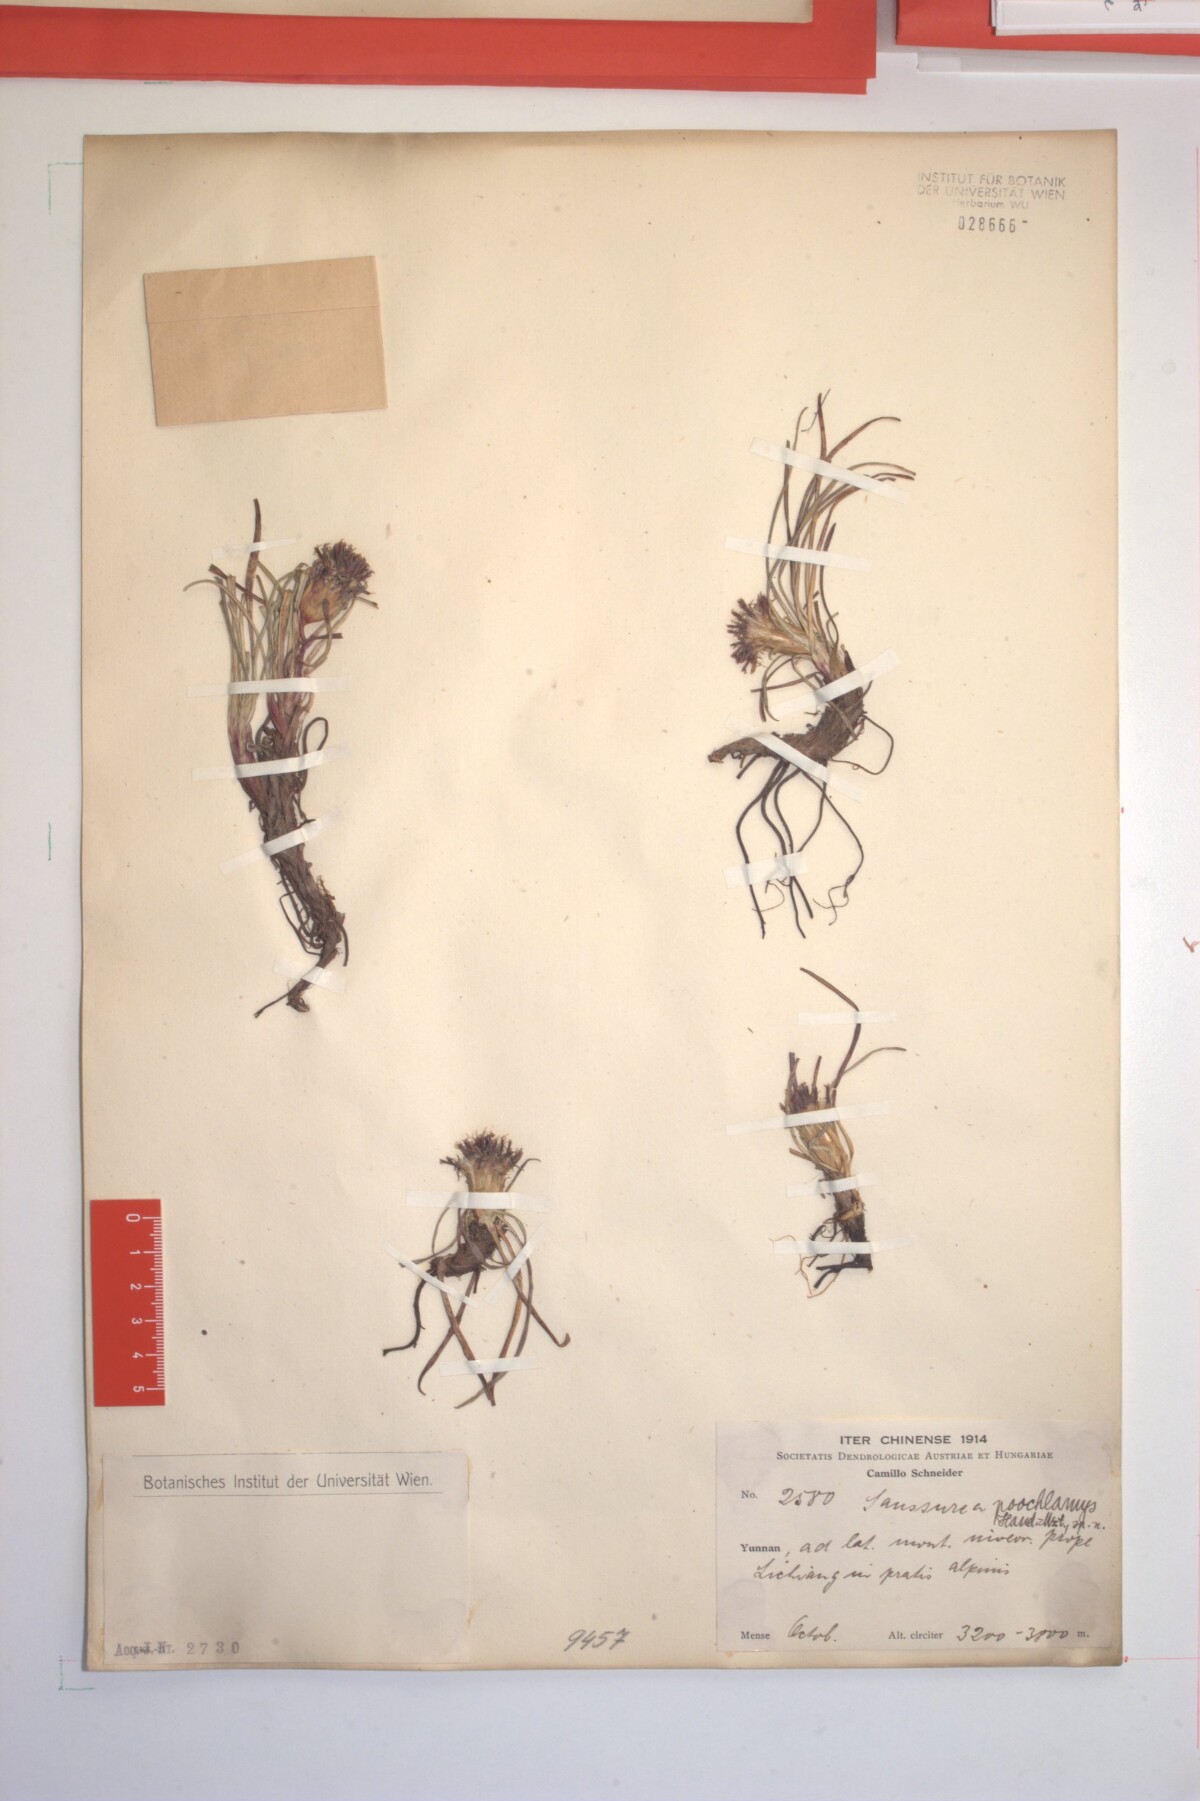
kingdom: Plantae
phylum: Tracheophyta
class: Magnoliopsida
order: Asterales
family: Asteraceae
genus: Saussurea
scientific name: Saussurea poochlamys
